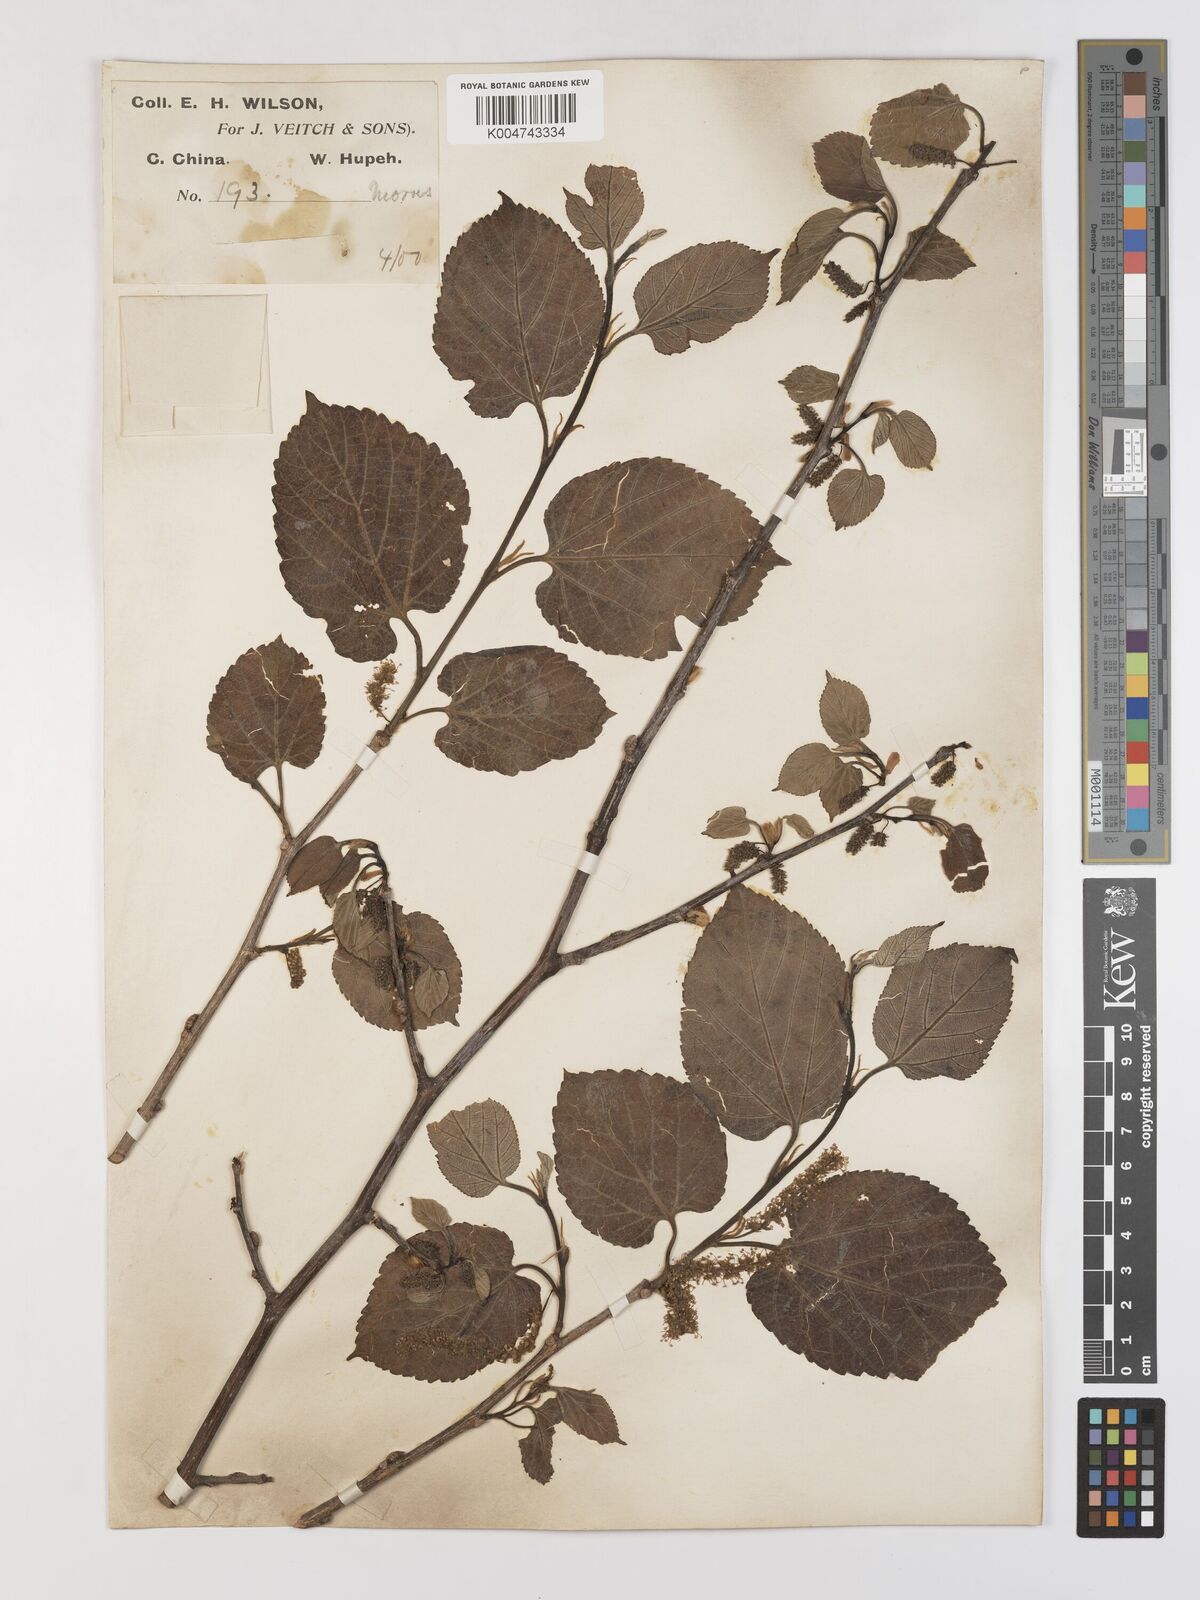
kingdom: Plantae
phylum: Tracheophyta
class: Magnoliopsida
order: Rosales
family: Moraceae
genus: Morus
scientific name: Morus cathayana
